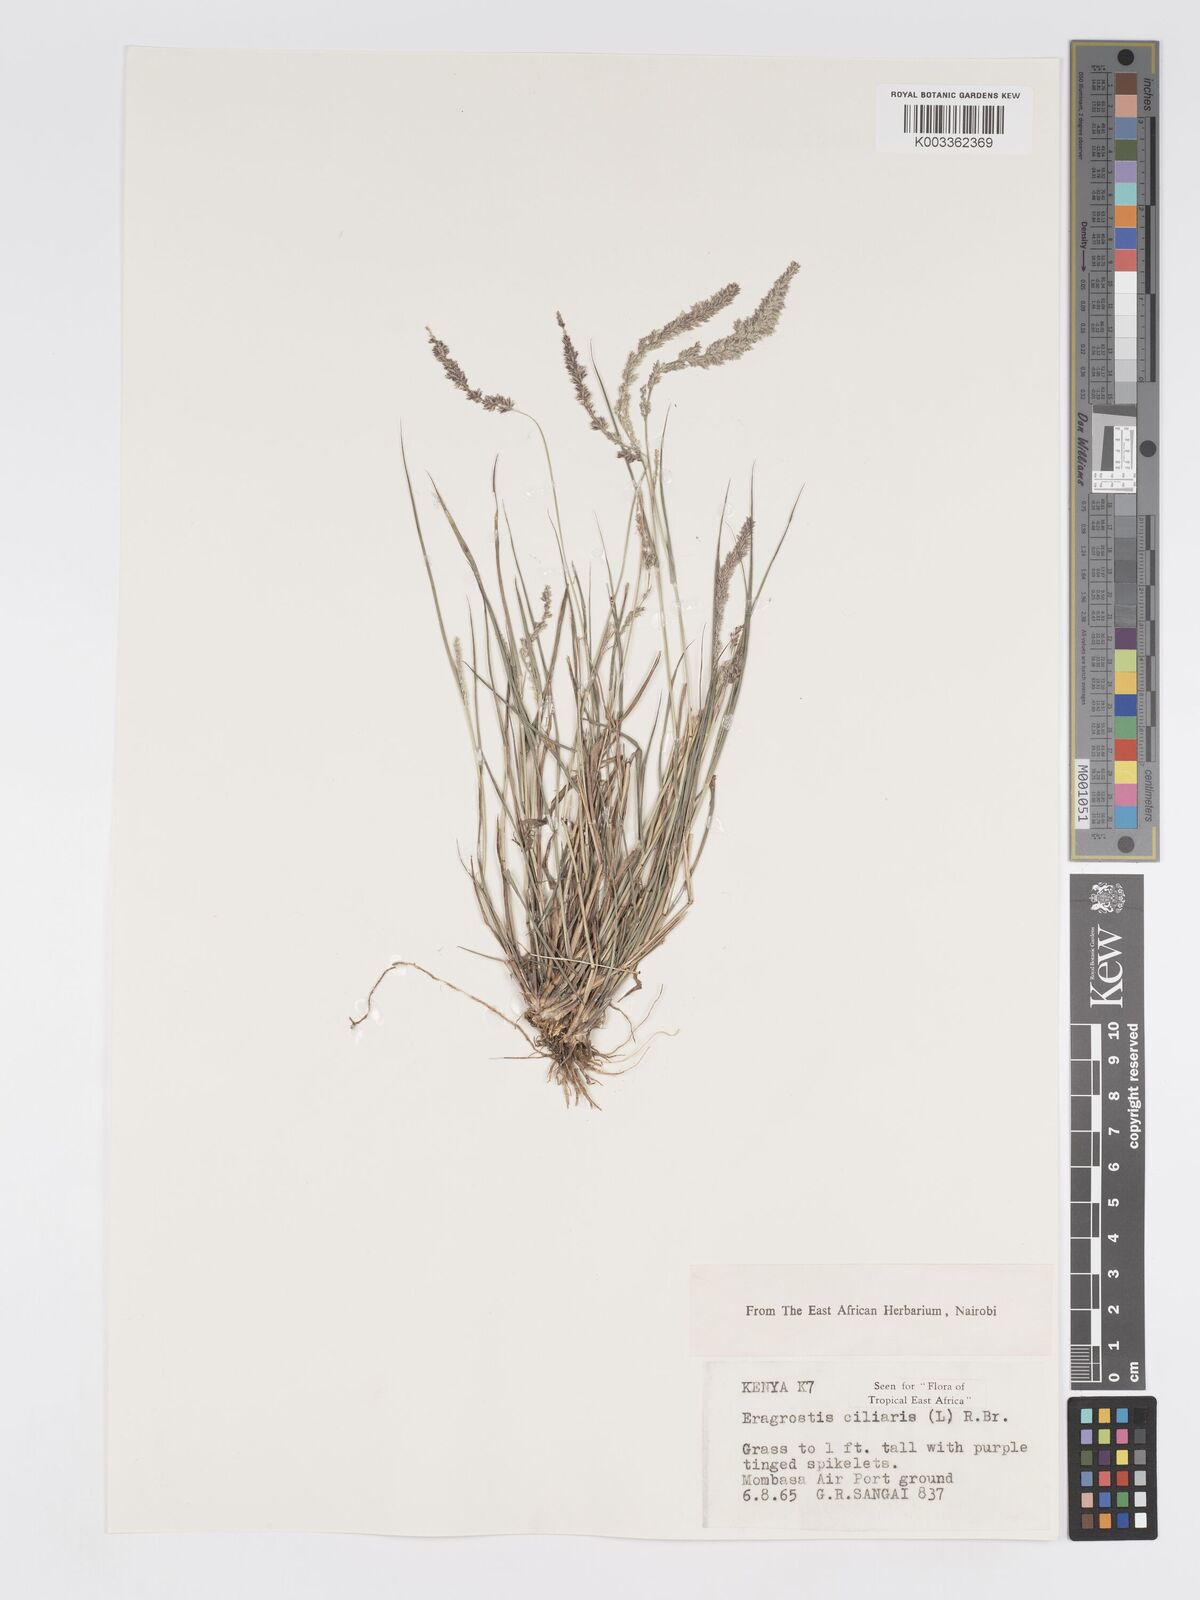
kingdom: Plantae
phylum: Tracheophyta
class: Liliopsida
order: Poales
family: Poaceae
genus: Eragrostis
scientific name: Eragrostis ciliaris
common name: Gophertail lovegrass
